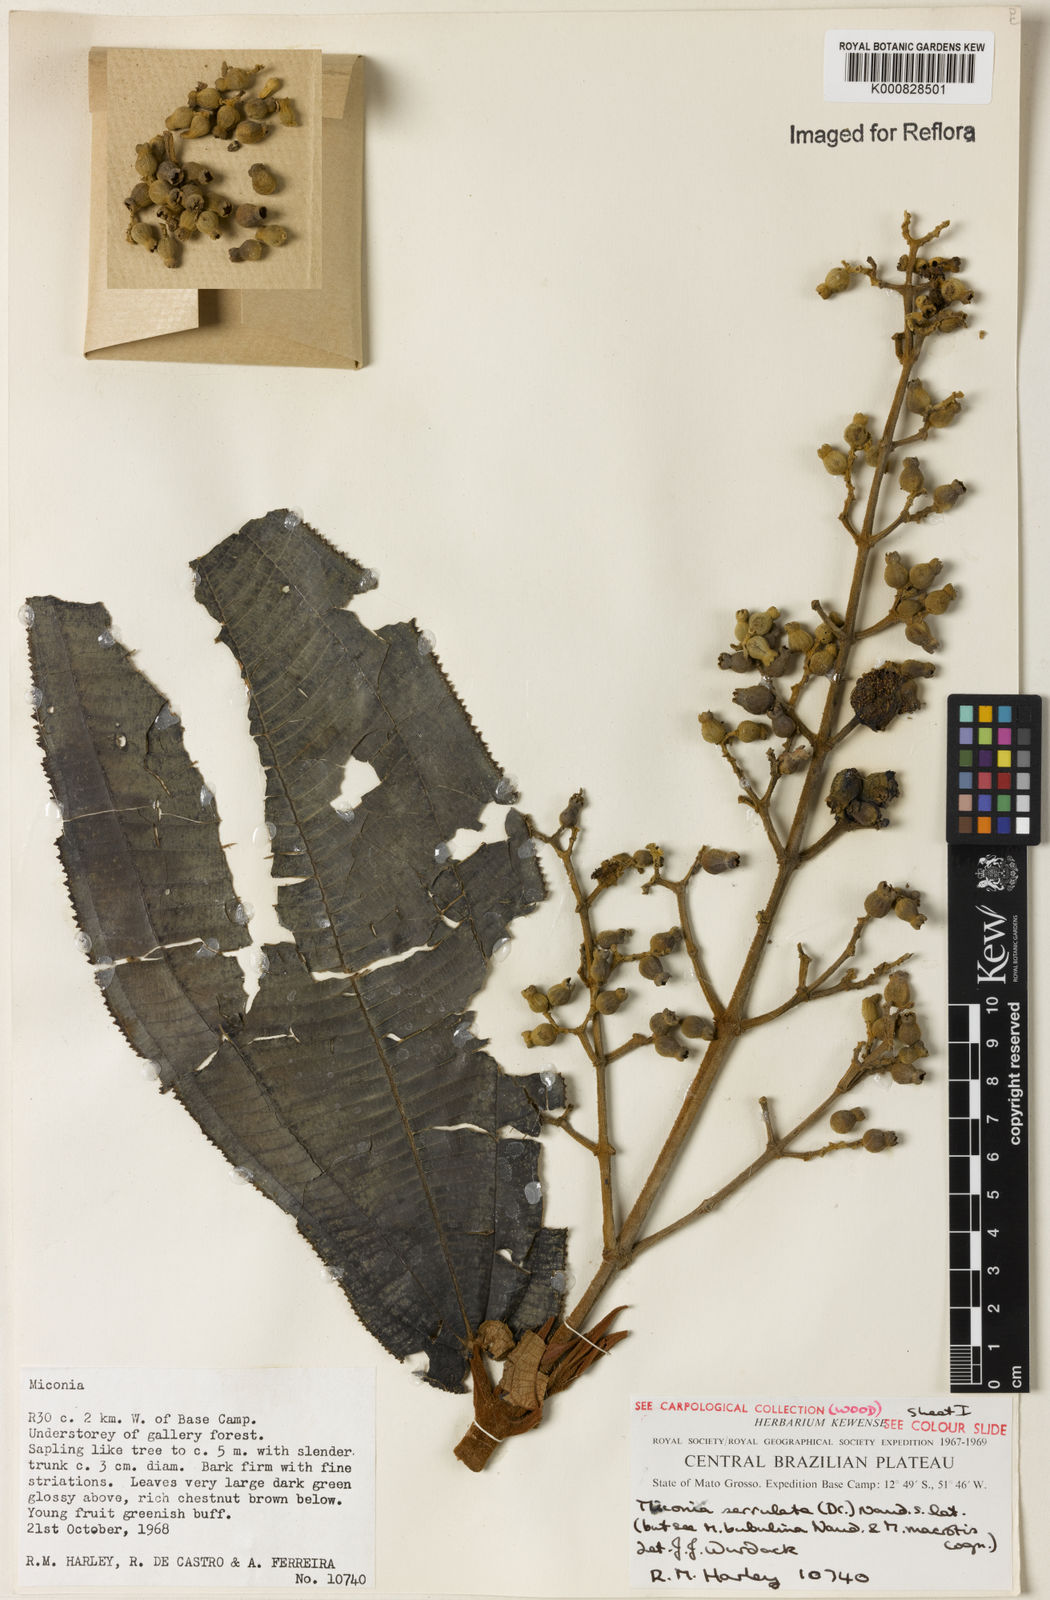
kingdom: Plantae
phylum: Tracheophyta
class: Magnoliopsida
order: Myrtales
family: Melastomataceae
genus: Miconia
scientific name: Miconia serrulata
